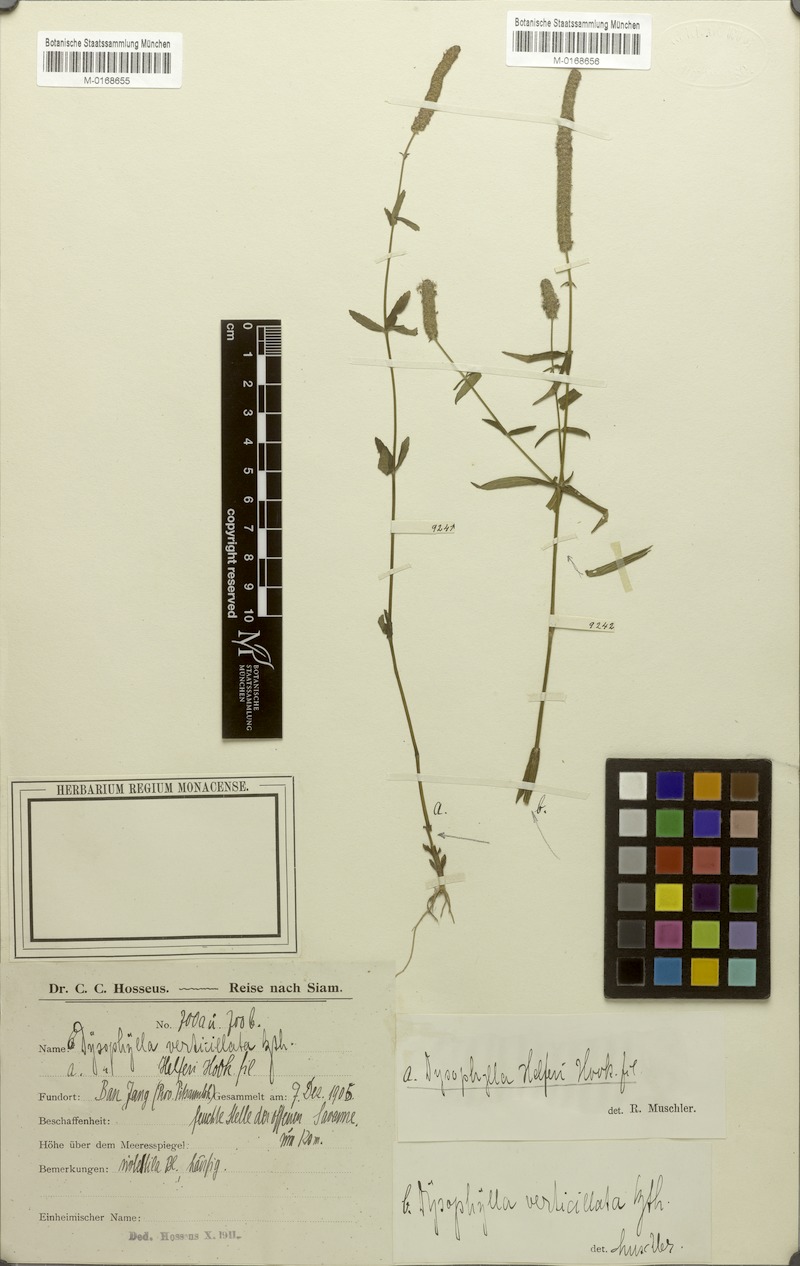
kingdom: Plantae
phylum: Tracheophyta
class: Magnoliopsida
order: Lamiales
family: Lamiaceae
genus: Pogostemon
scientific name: Pogostemon helferi
